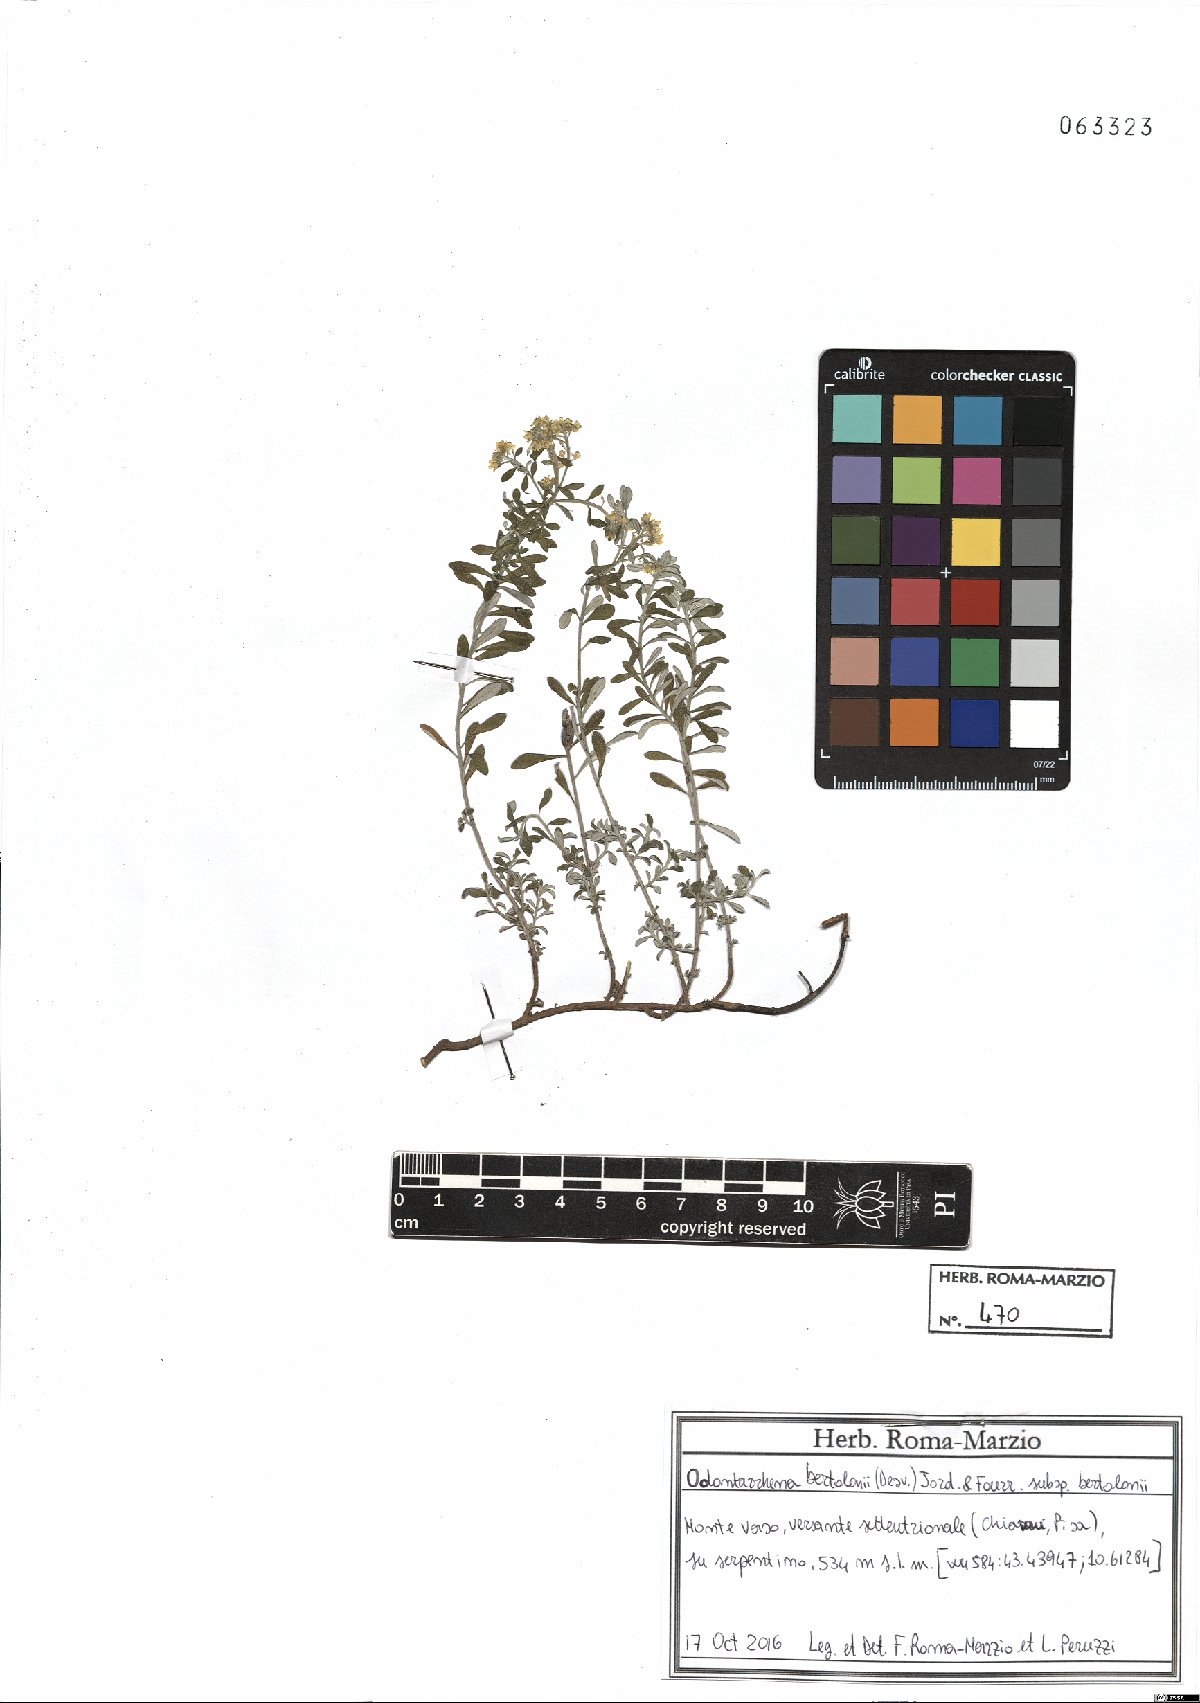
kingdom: Plantae
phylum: Tracheophyta
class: Magnoliopsida
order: Brassicales
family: Brassicaceae
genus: Odontarrhena
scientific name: Odontarrhena bertolonii
